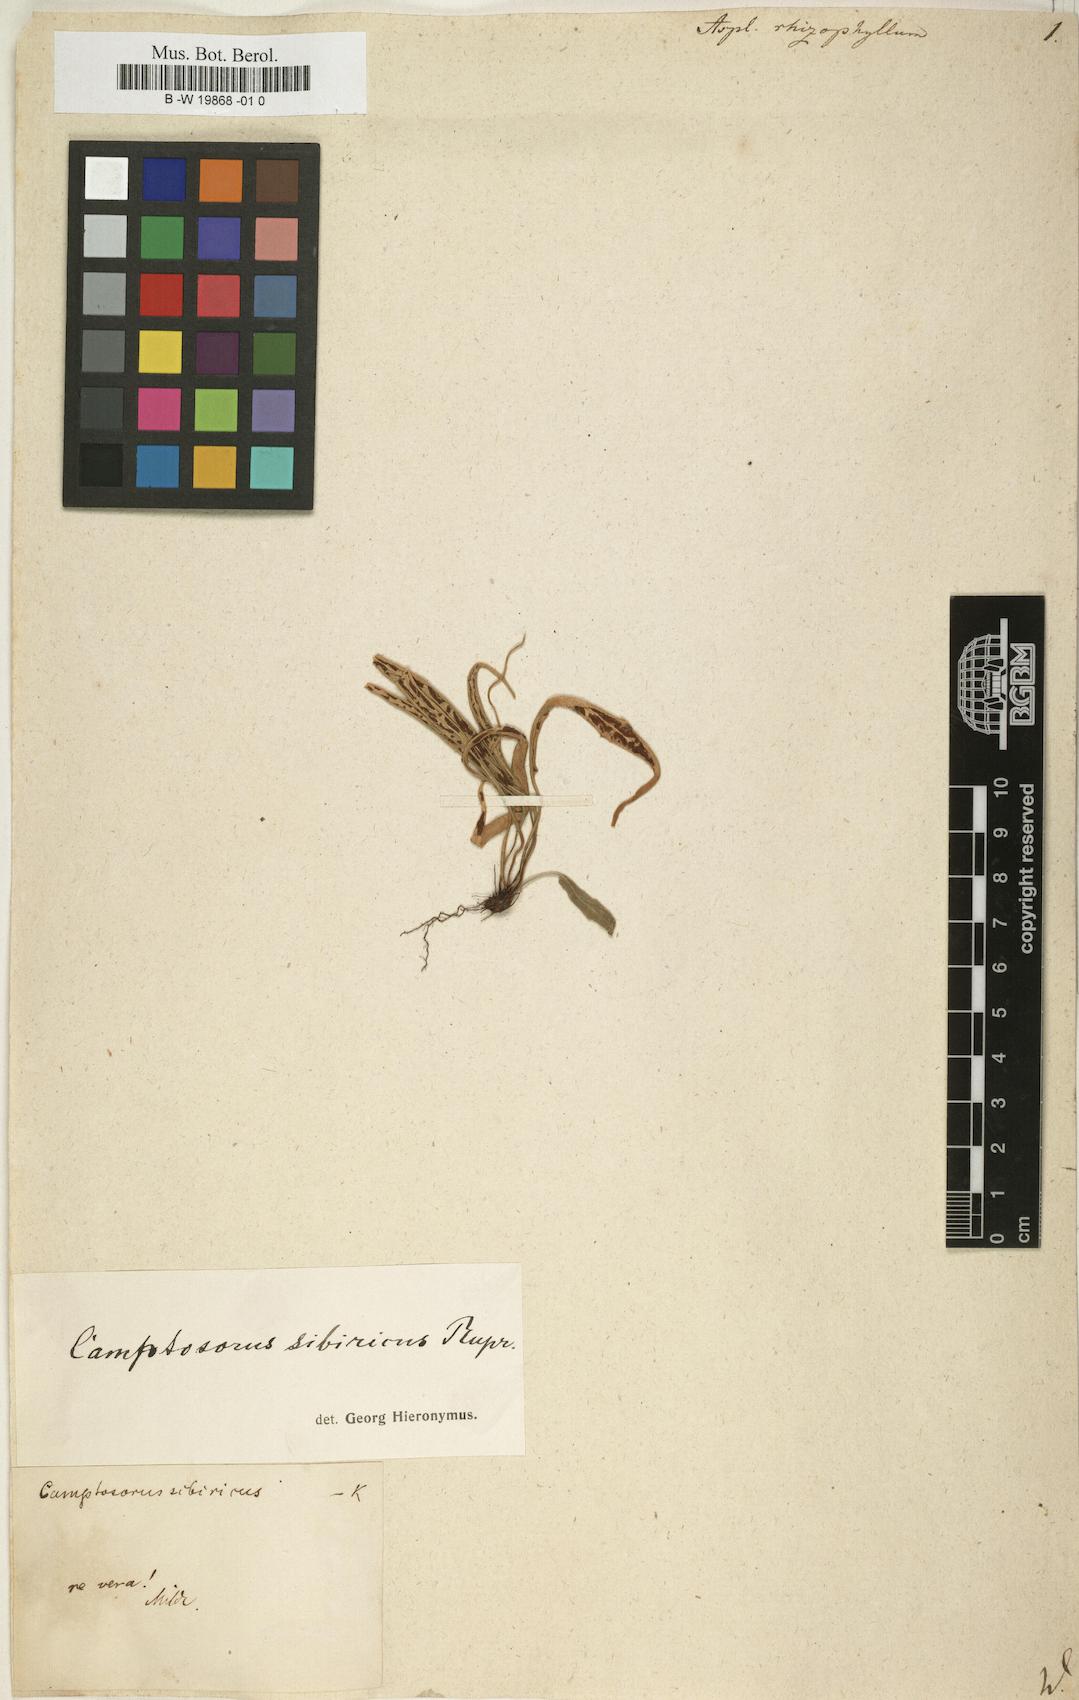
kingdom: Plantae
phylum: Tracheophyta
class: Polypodiopsida
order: Polypodiales
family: Aspleniaceae
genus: Asplenium
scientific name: Asplenium rhizophyllum
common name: Walking fern
